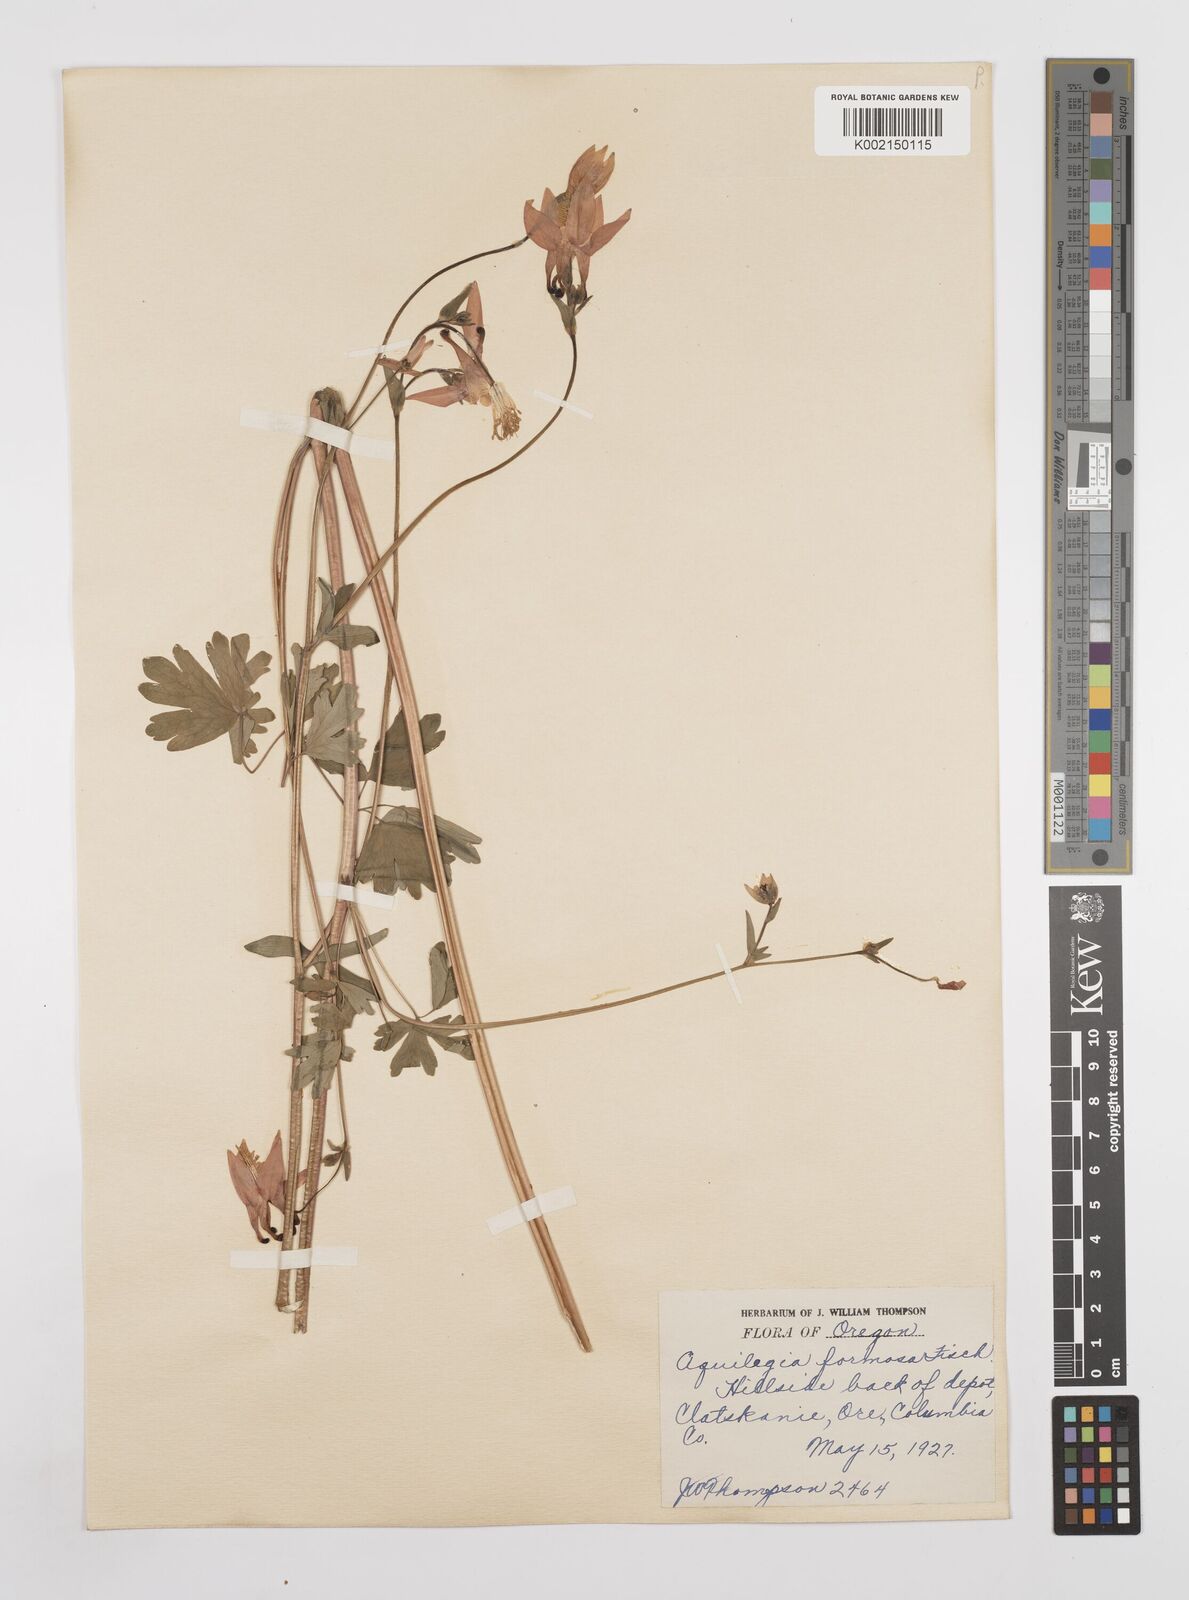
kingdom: Plantae
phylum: Tracheophyta
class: Magnoliopsida
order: Ranunculales
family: Ranunculaceae
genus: Aquilegia
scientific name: Aquilegia
